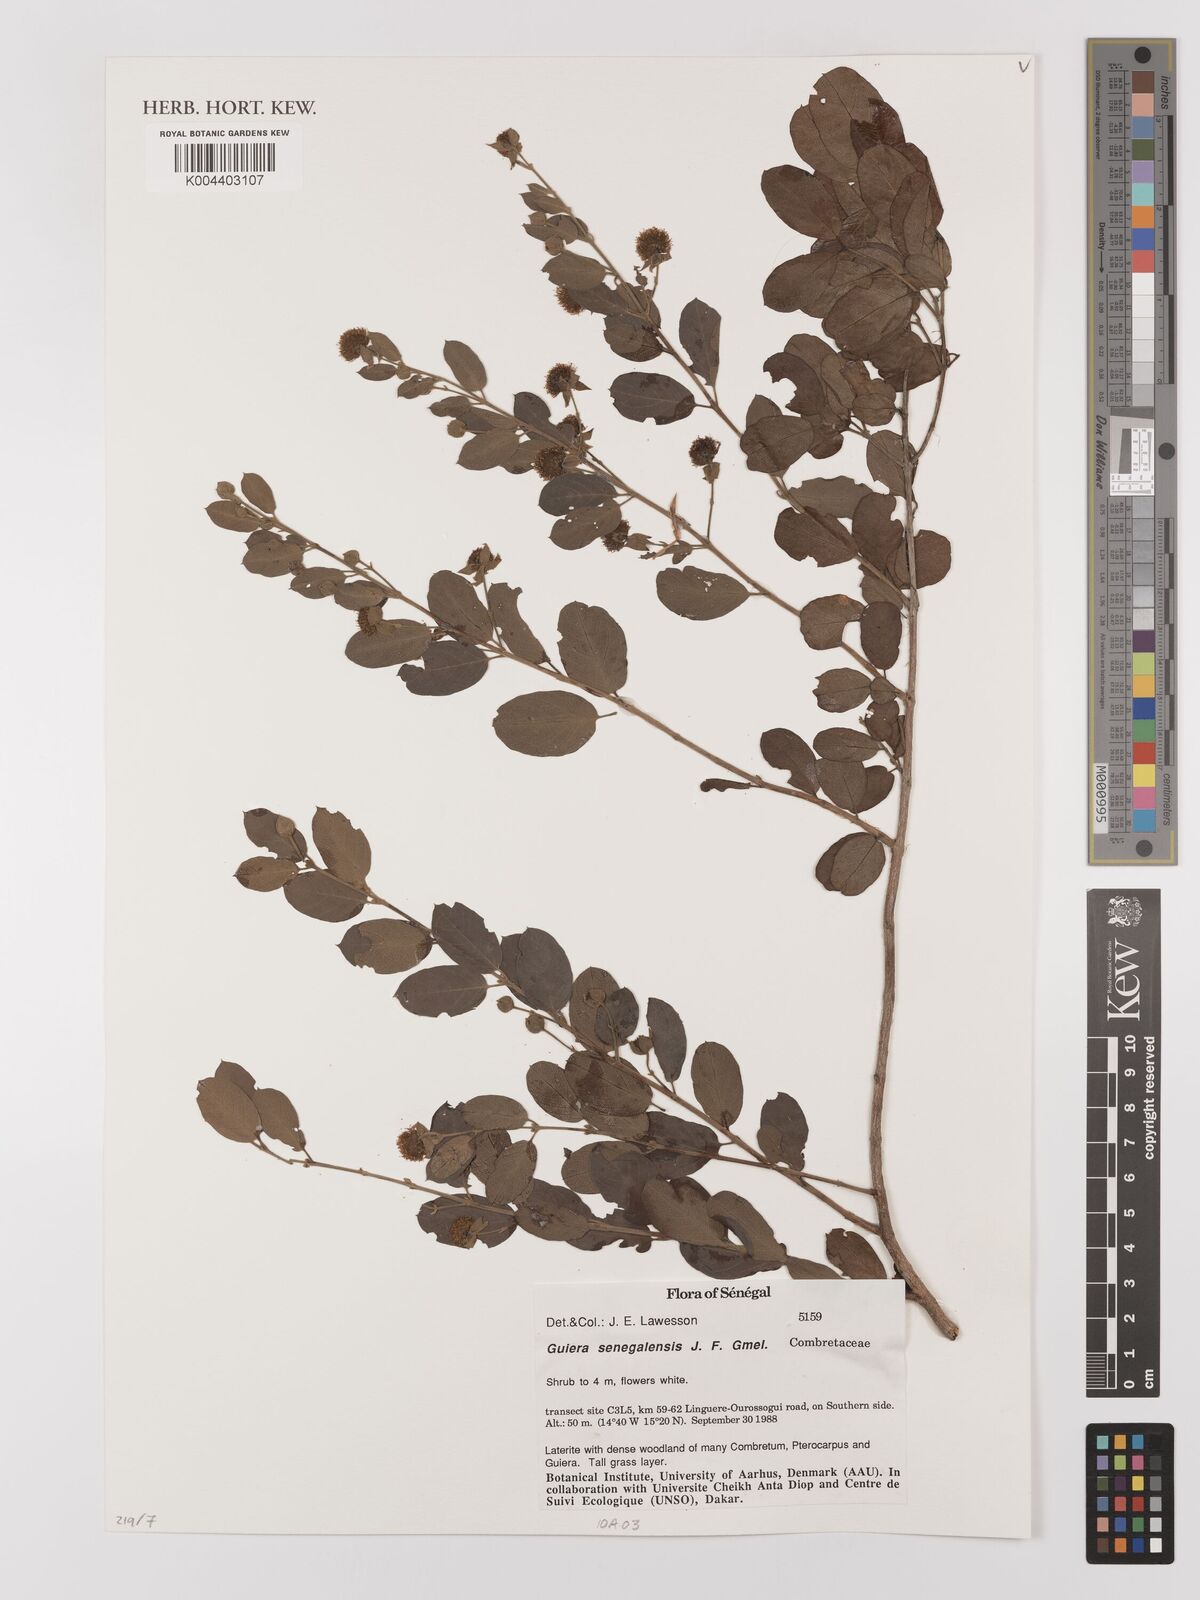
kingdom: Plantae
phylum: Tracheophyta
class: Magnoliopsida
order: Myrtales
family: Combretaceae
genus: Guiera
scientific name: Guiera senegalensis
